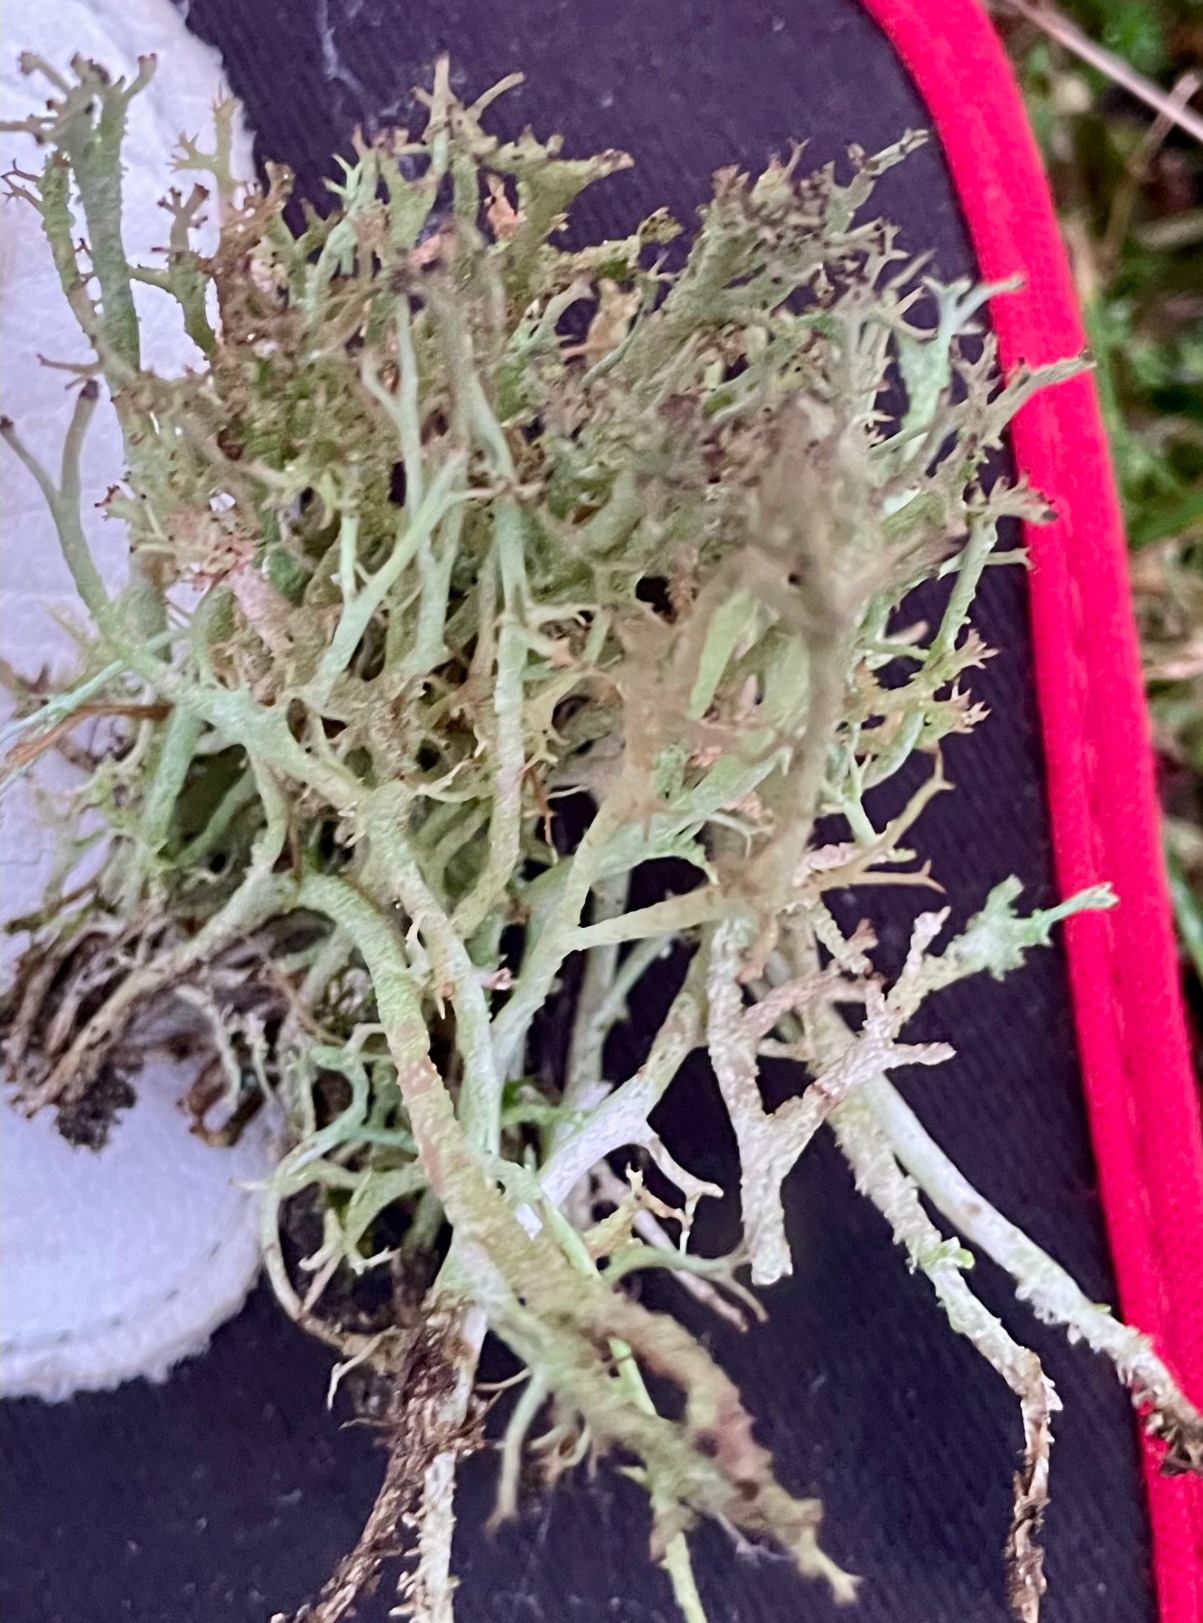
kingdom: Fungi
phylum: Ascomycota
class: Lecanoromycetes
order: Lecanorales
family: Cladoniaceae
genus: Cladonia
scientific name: Cladonia rangiformis
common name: Spættet bægerlav
